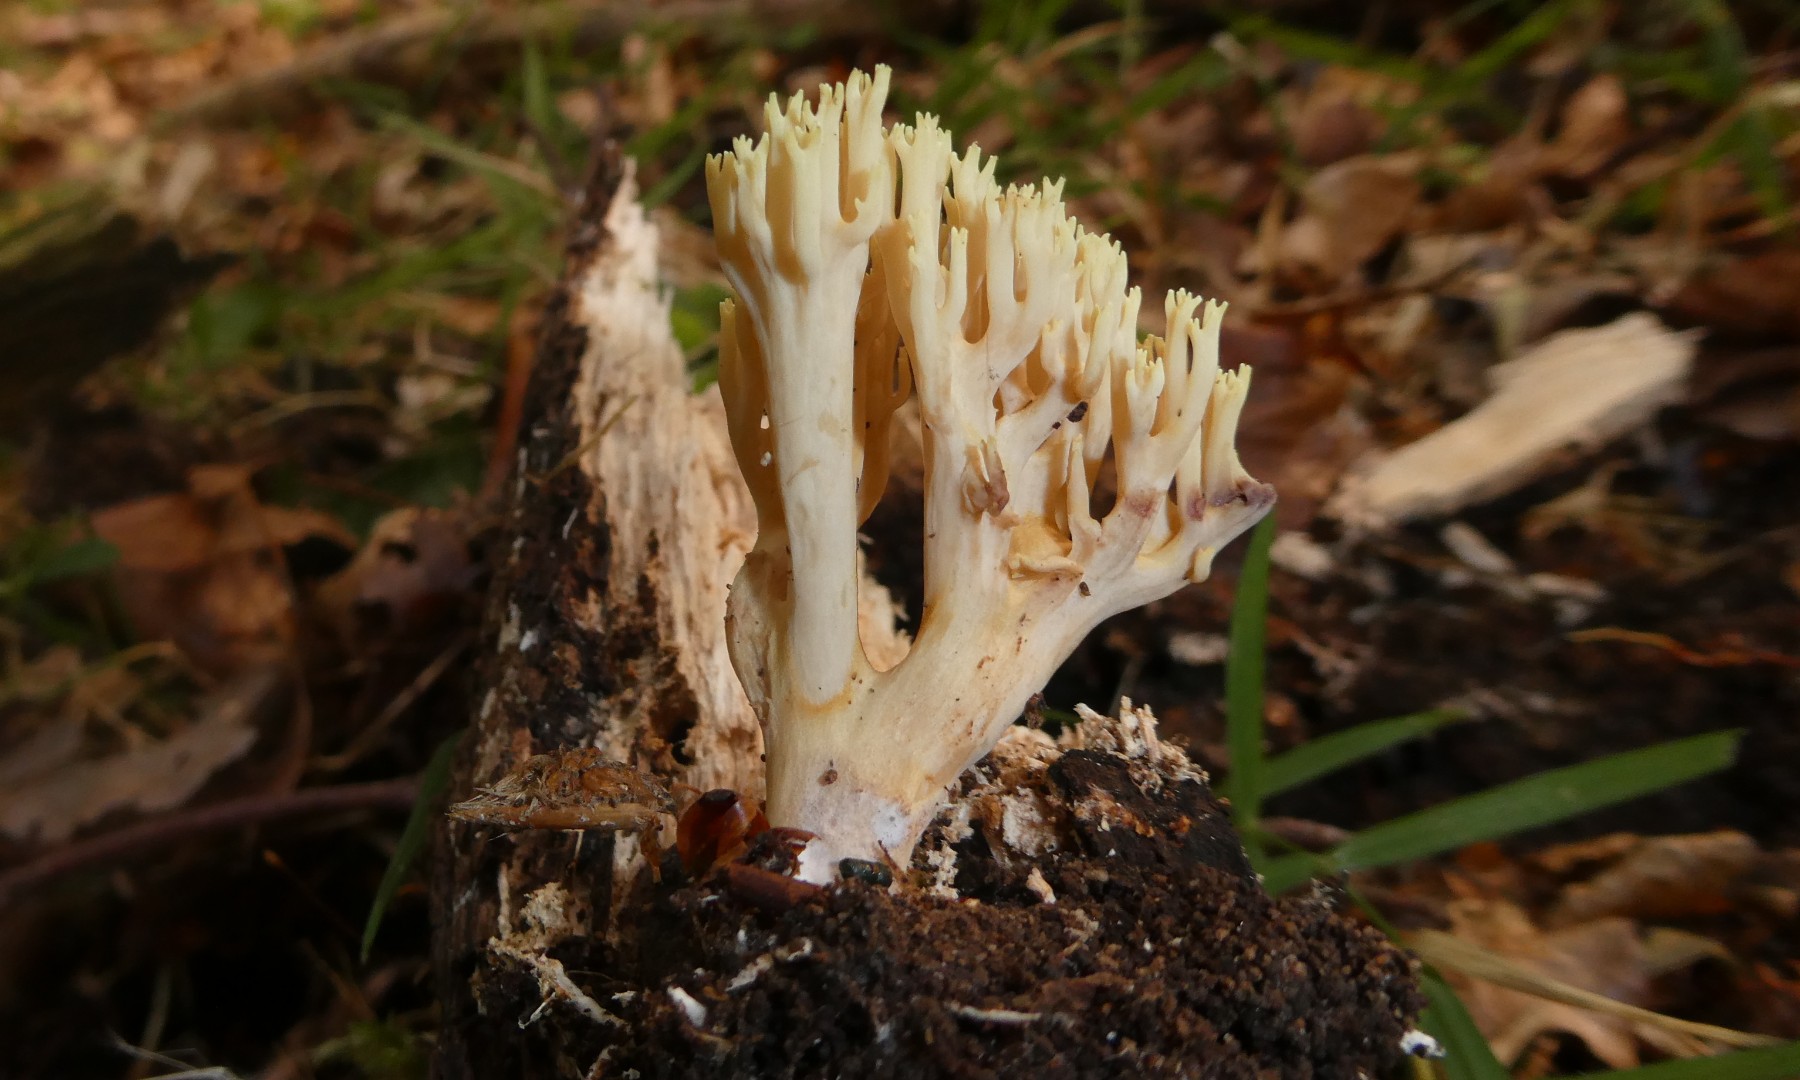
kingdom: Fungi
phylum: Basidiomycota
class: Agaricomycetes
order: Gomphales
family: Gomphaceae
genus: Ramaria
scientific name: Ramaria stricta
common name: rank koralsvamp
